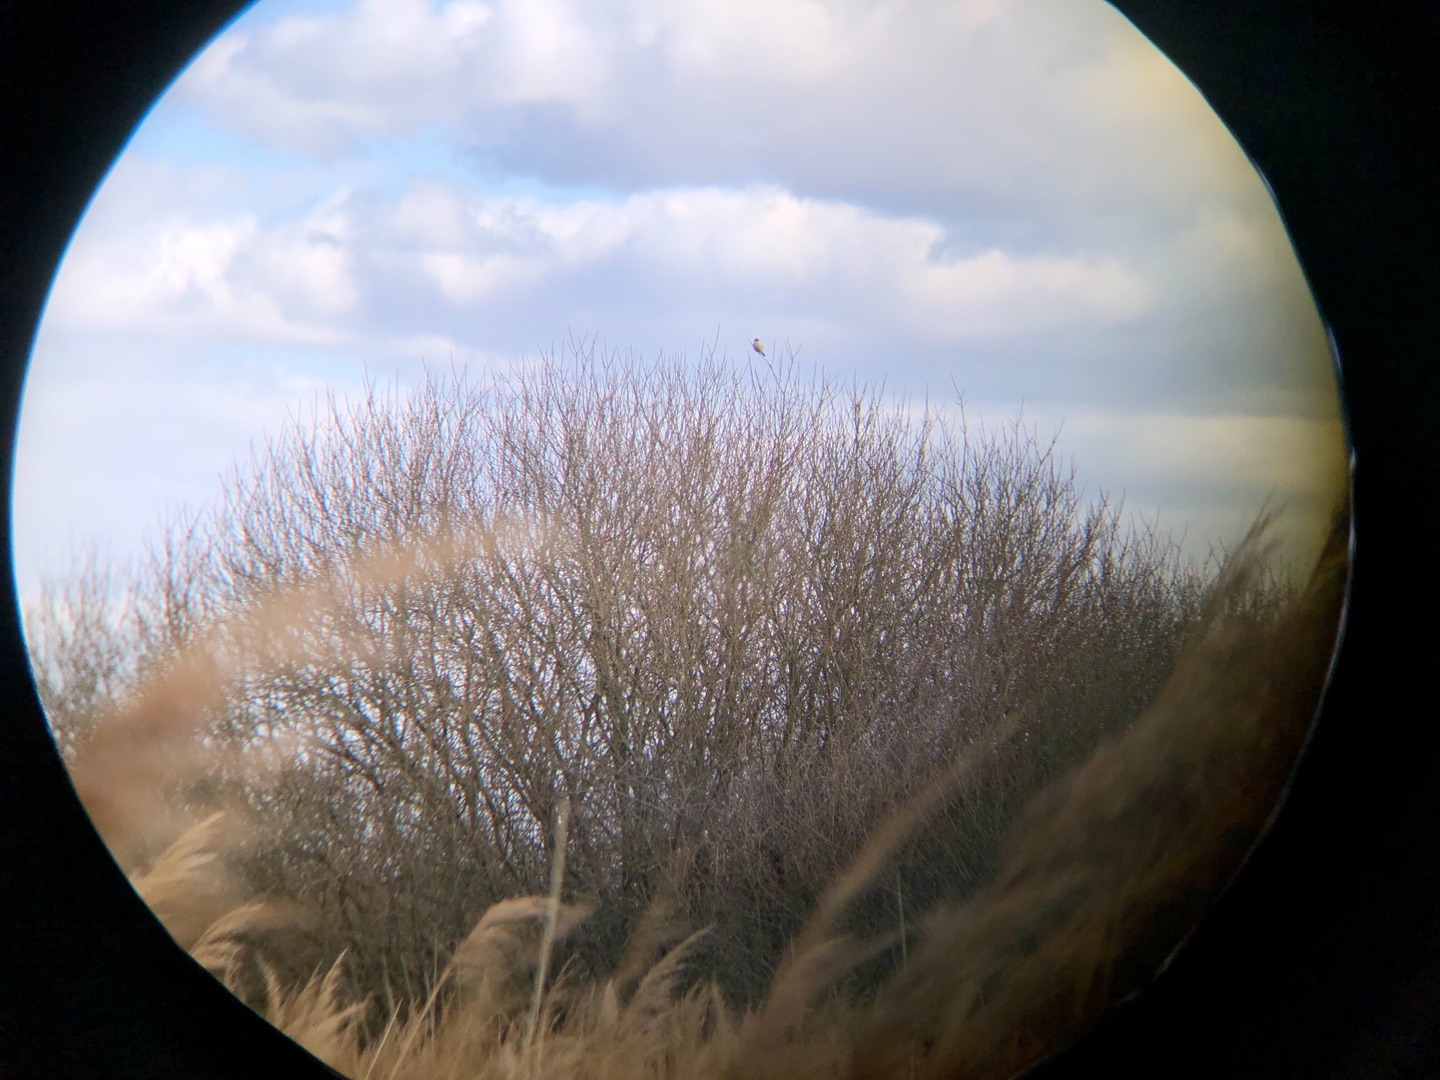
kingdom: Animalia
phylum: Chordata
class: Aves
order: Passeriformes
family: Laniidae
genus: Lanius
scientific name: Lanius excubitor
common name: Stor tornskade
